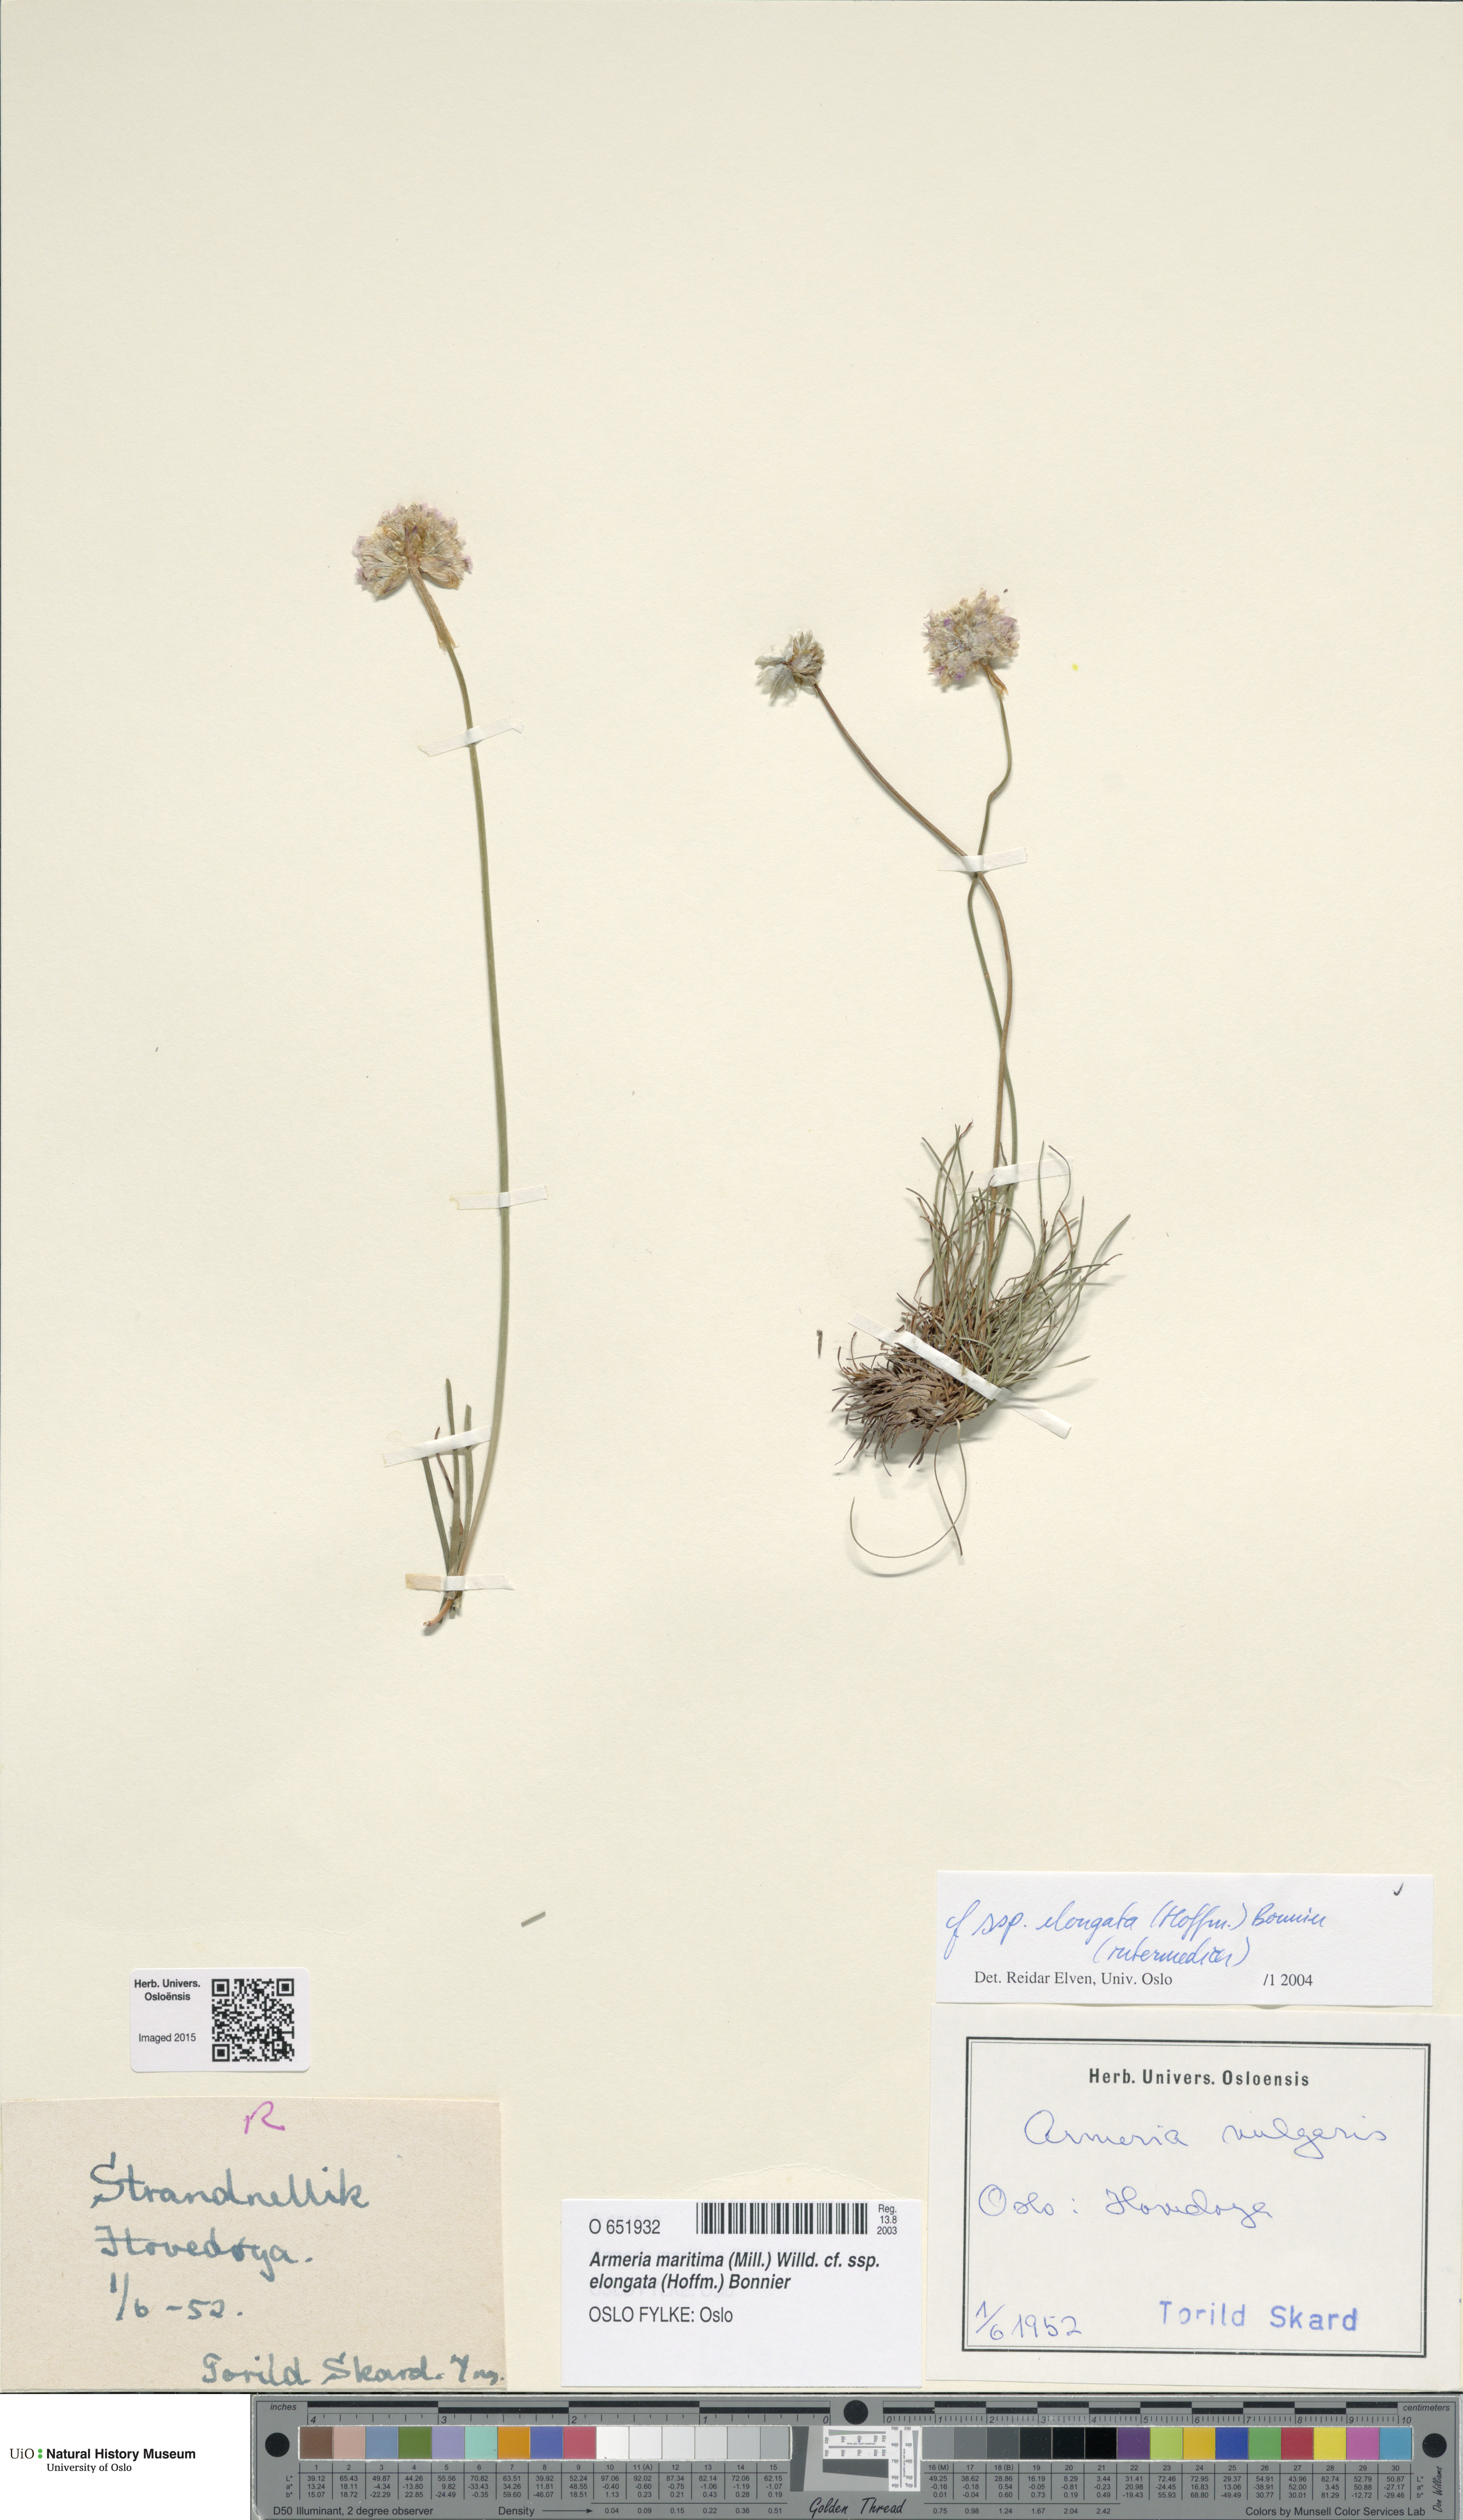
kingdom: Plantae
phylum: Tracheophyta
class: Magnoliopsida
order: Caryophyllales
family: Plumbaginaceae
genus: Armeria
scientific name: Armeria maritima
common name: Thrift
